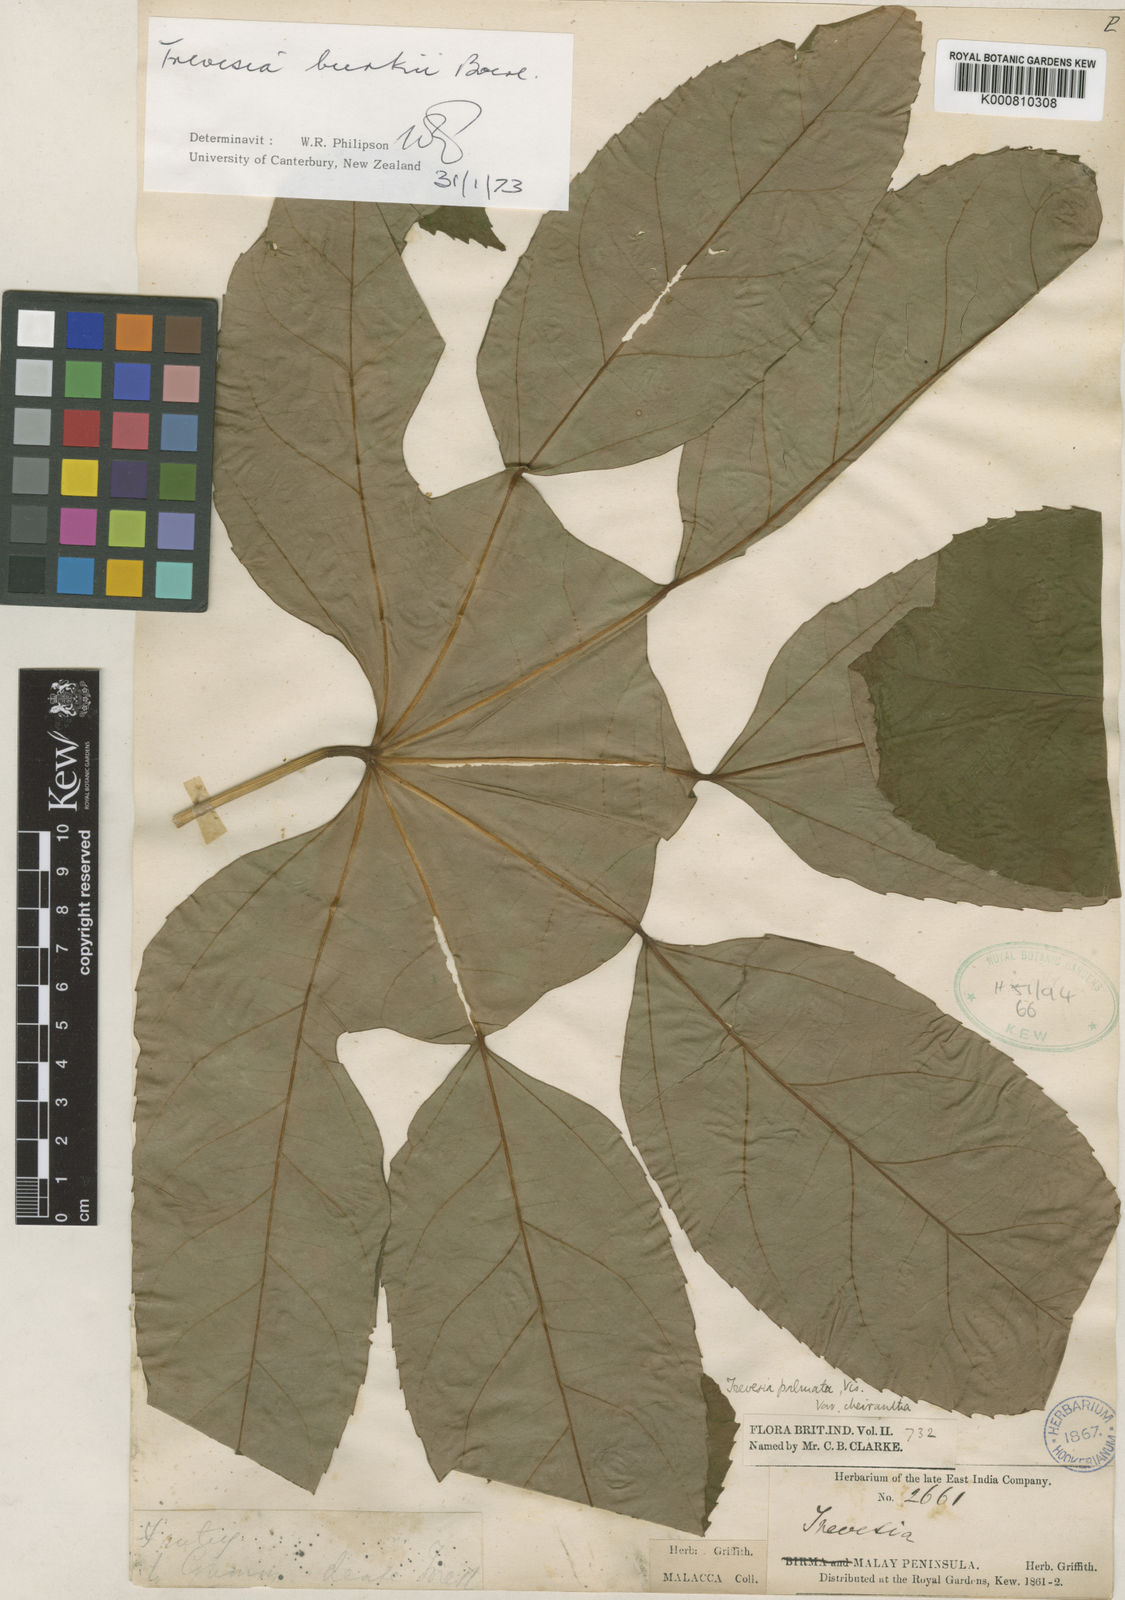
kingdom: Plantae
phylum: Tracheophyta
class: Magnoliopsida
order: Apiales
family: Araliaceae
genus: Trevesia
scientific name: Trevesia burckii
